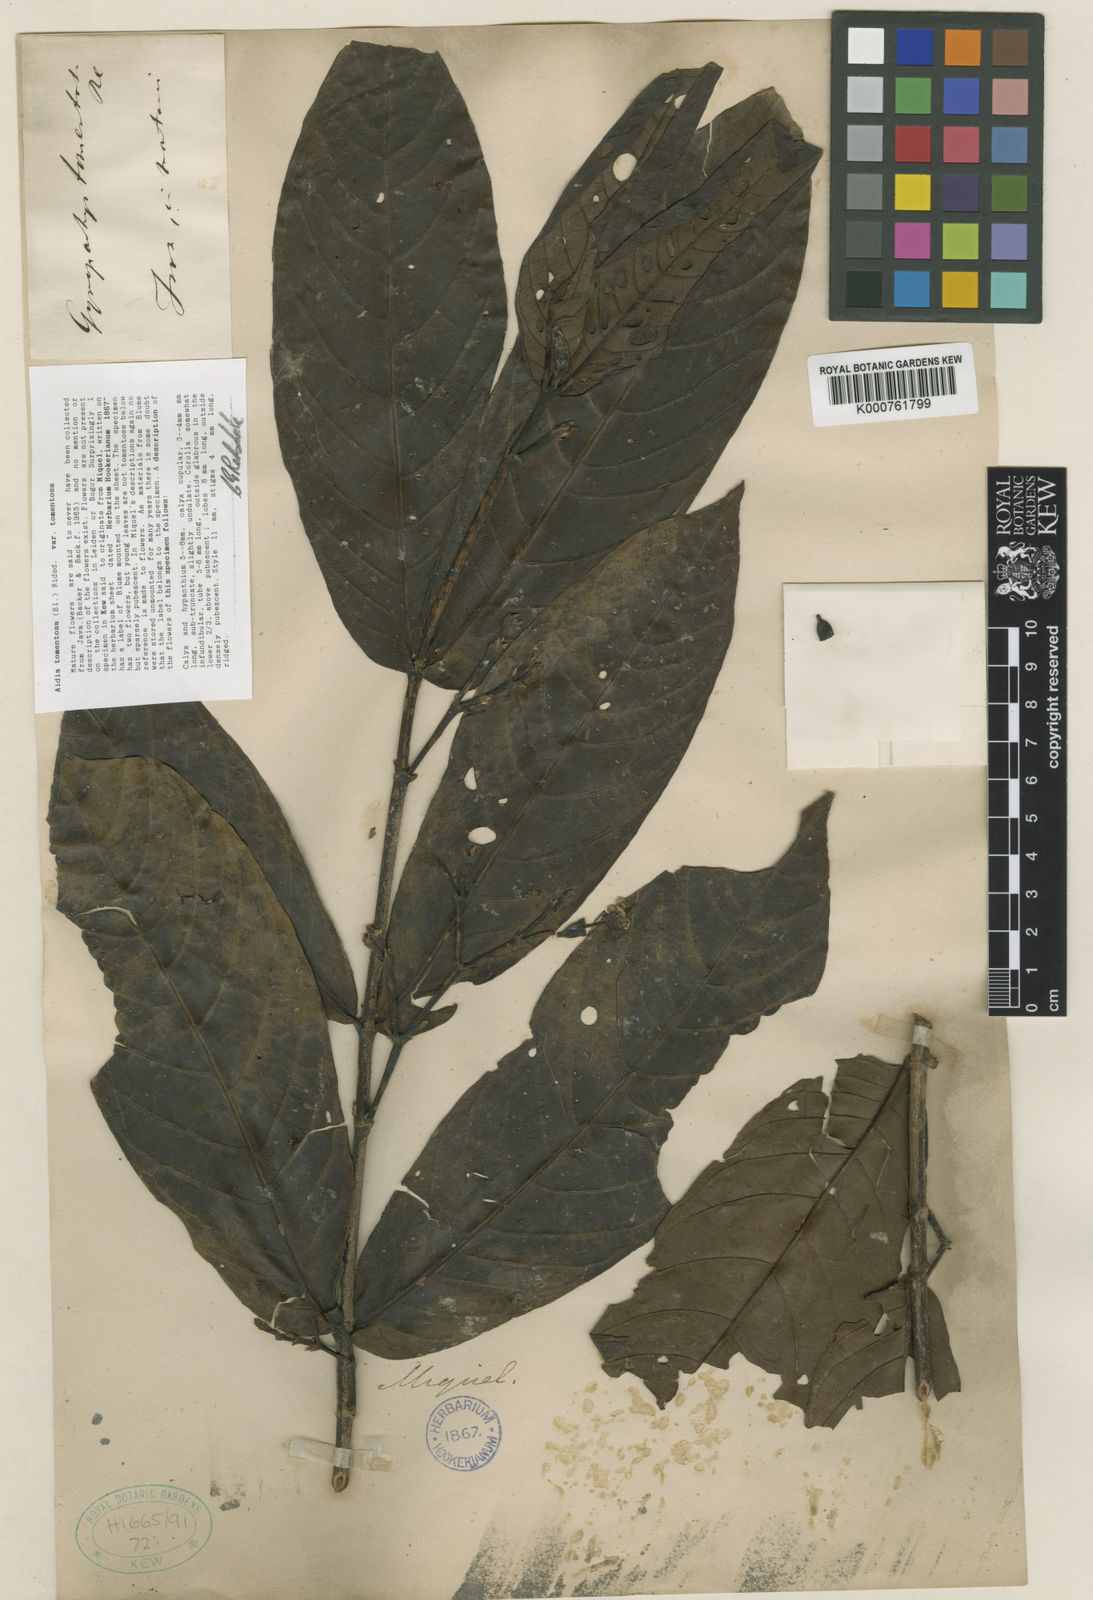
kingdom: Plantae
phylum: Tracheophyta
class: Magnoliopsida
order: Gentianales
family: Rubiaceae
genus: Aidia
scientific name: Aidia tomentosa
